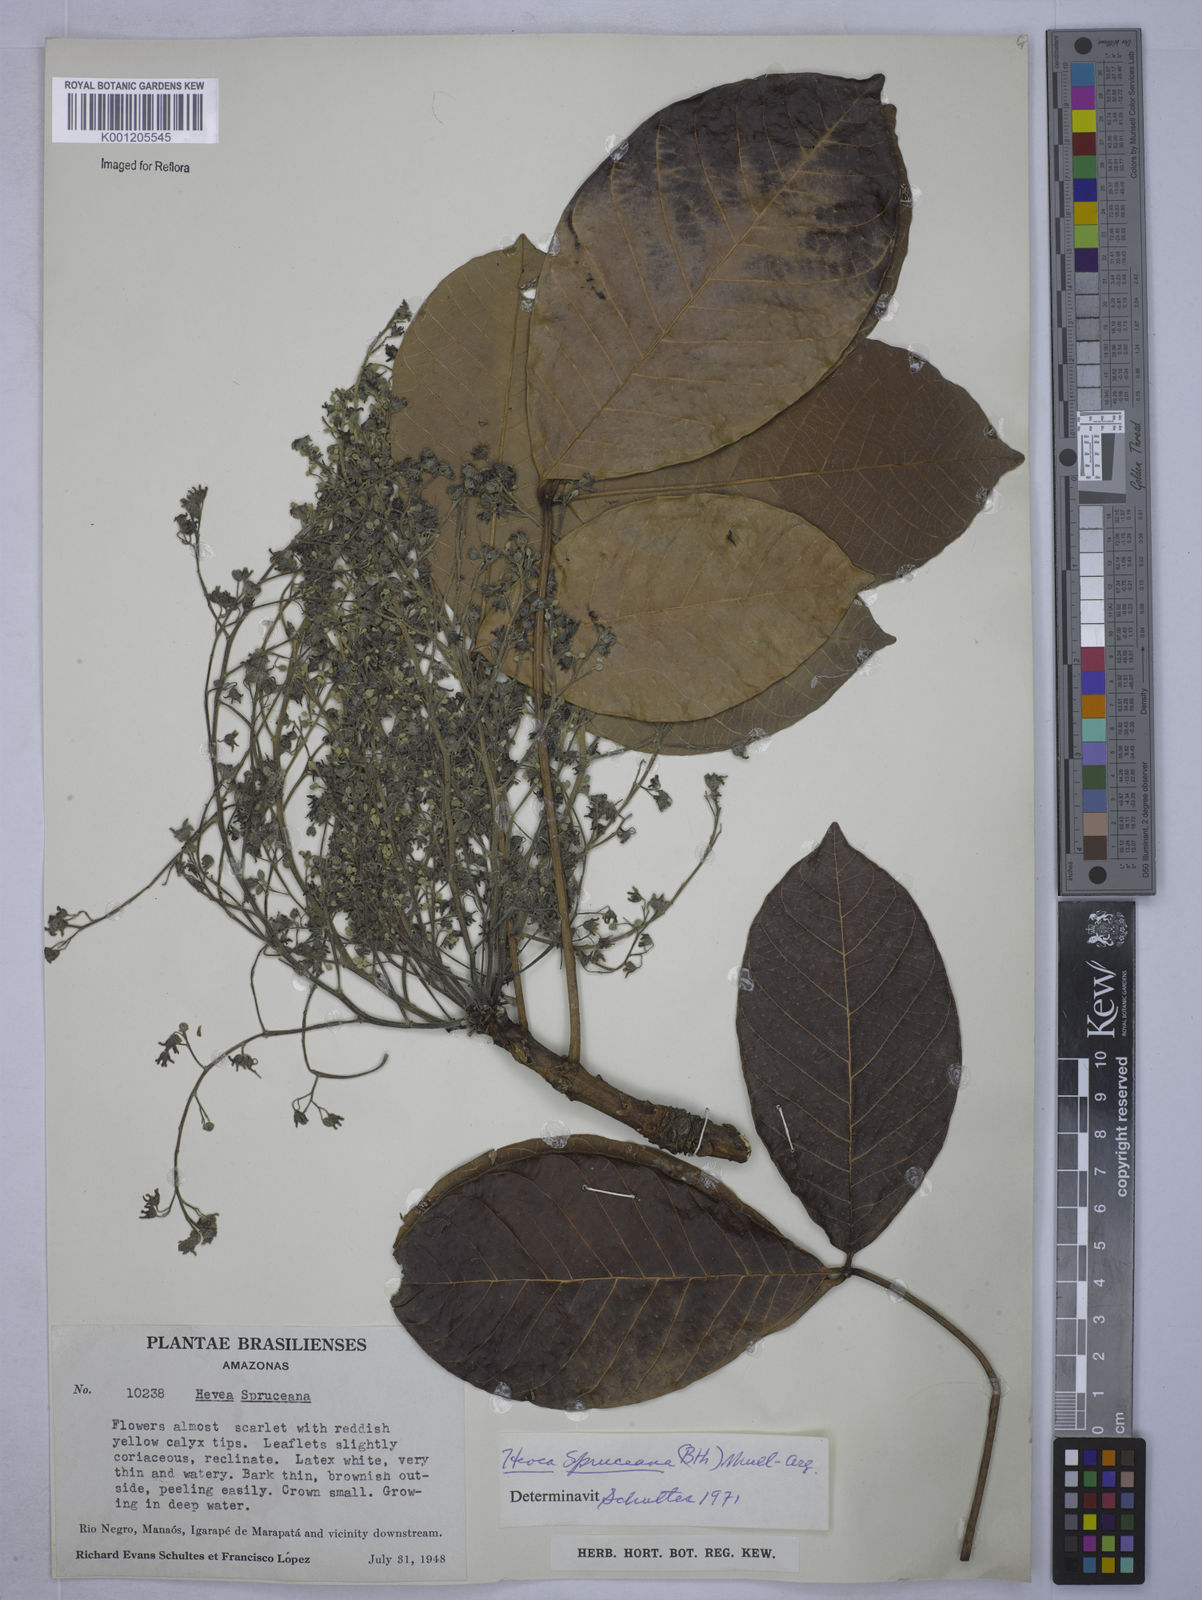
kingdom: Plantae
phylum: Tracheophyta
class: Magnoliopsida
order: Malpighiales
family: Euphorbiaceae
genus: Hevea
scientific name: Hevea
